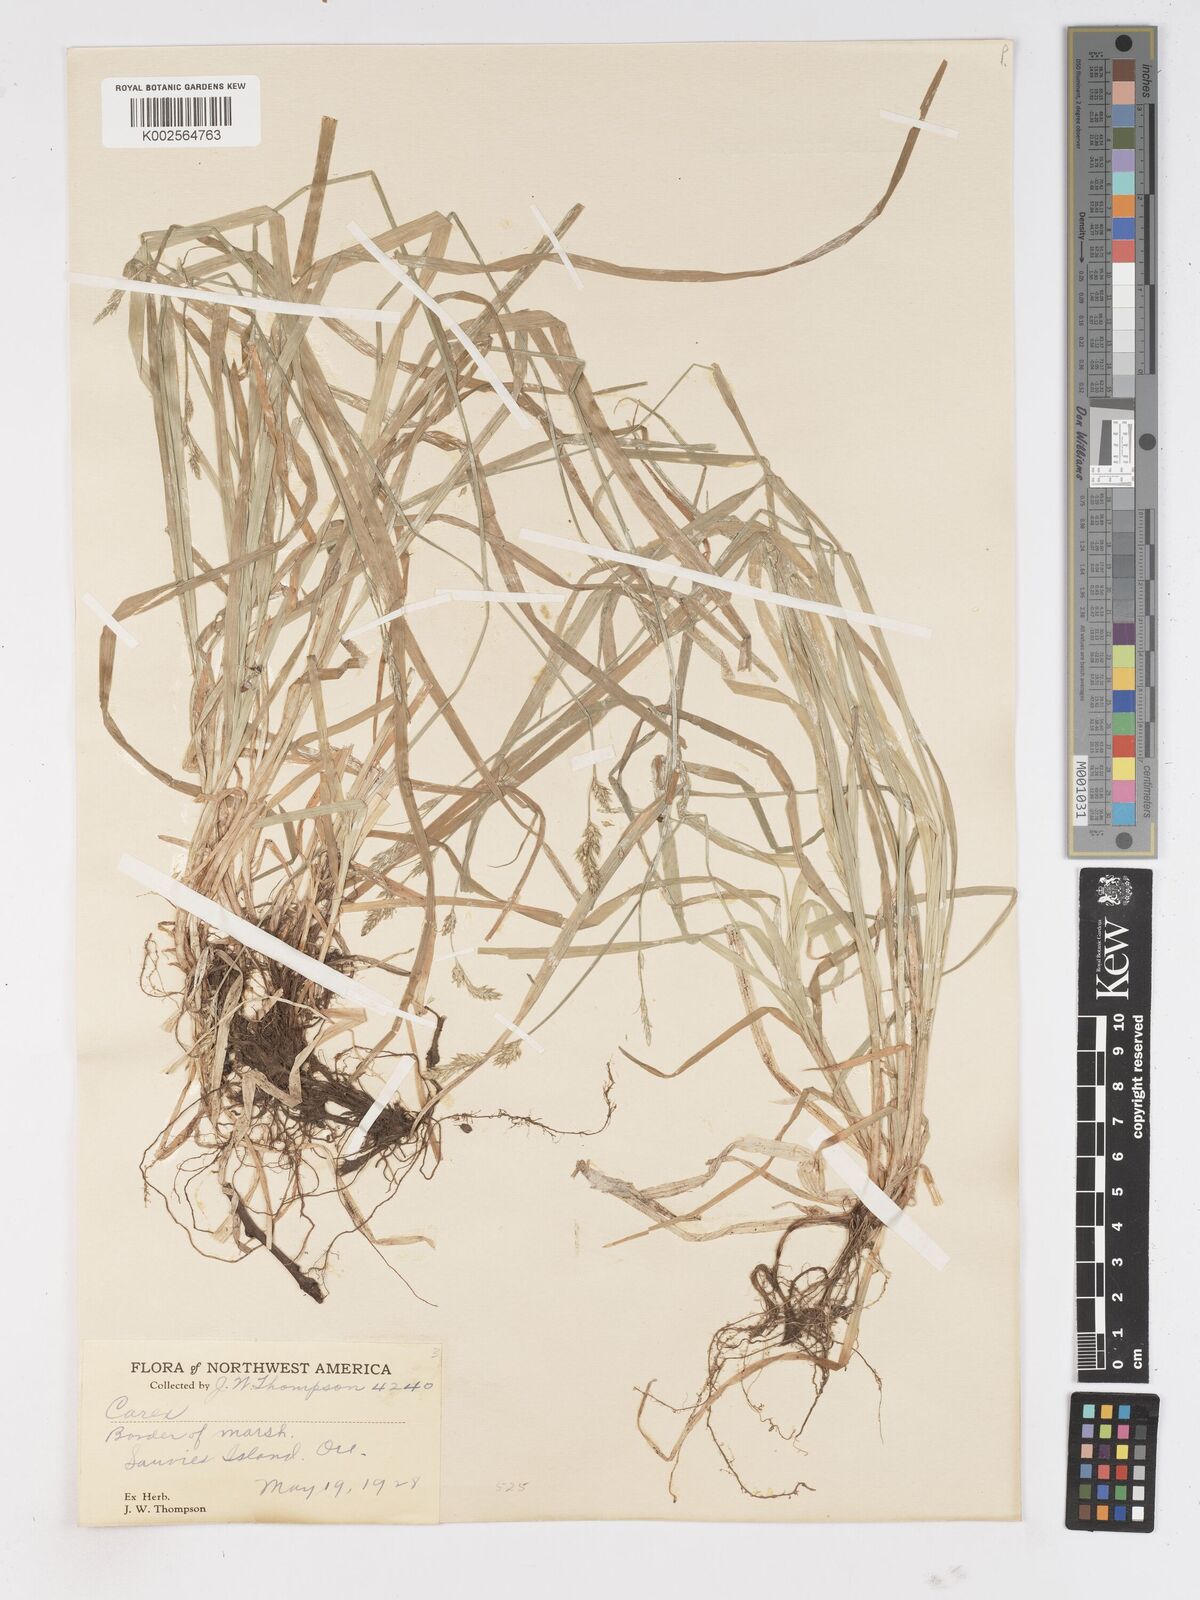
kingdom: Plantae
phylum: Tracheophyta
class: Liliopsida
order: Poales
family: Cyperaceae
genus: Carex
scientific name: Carex
